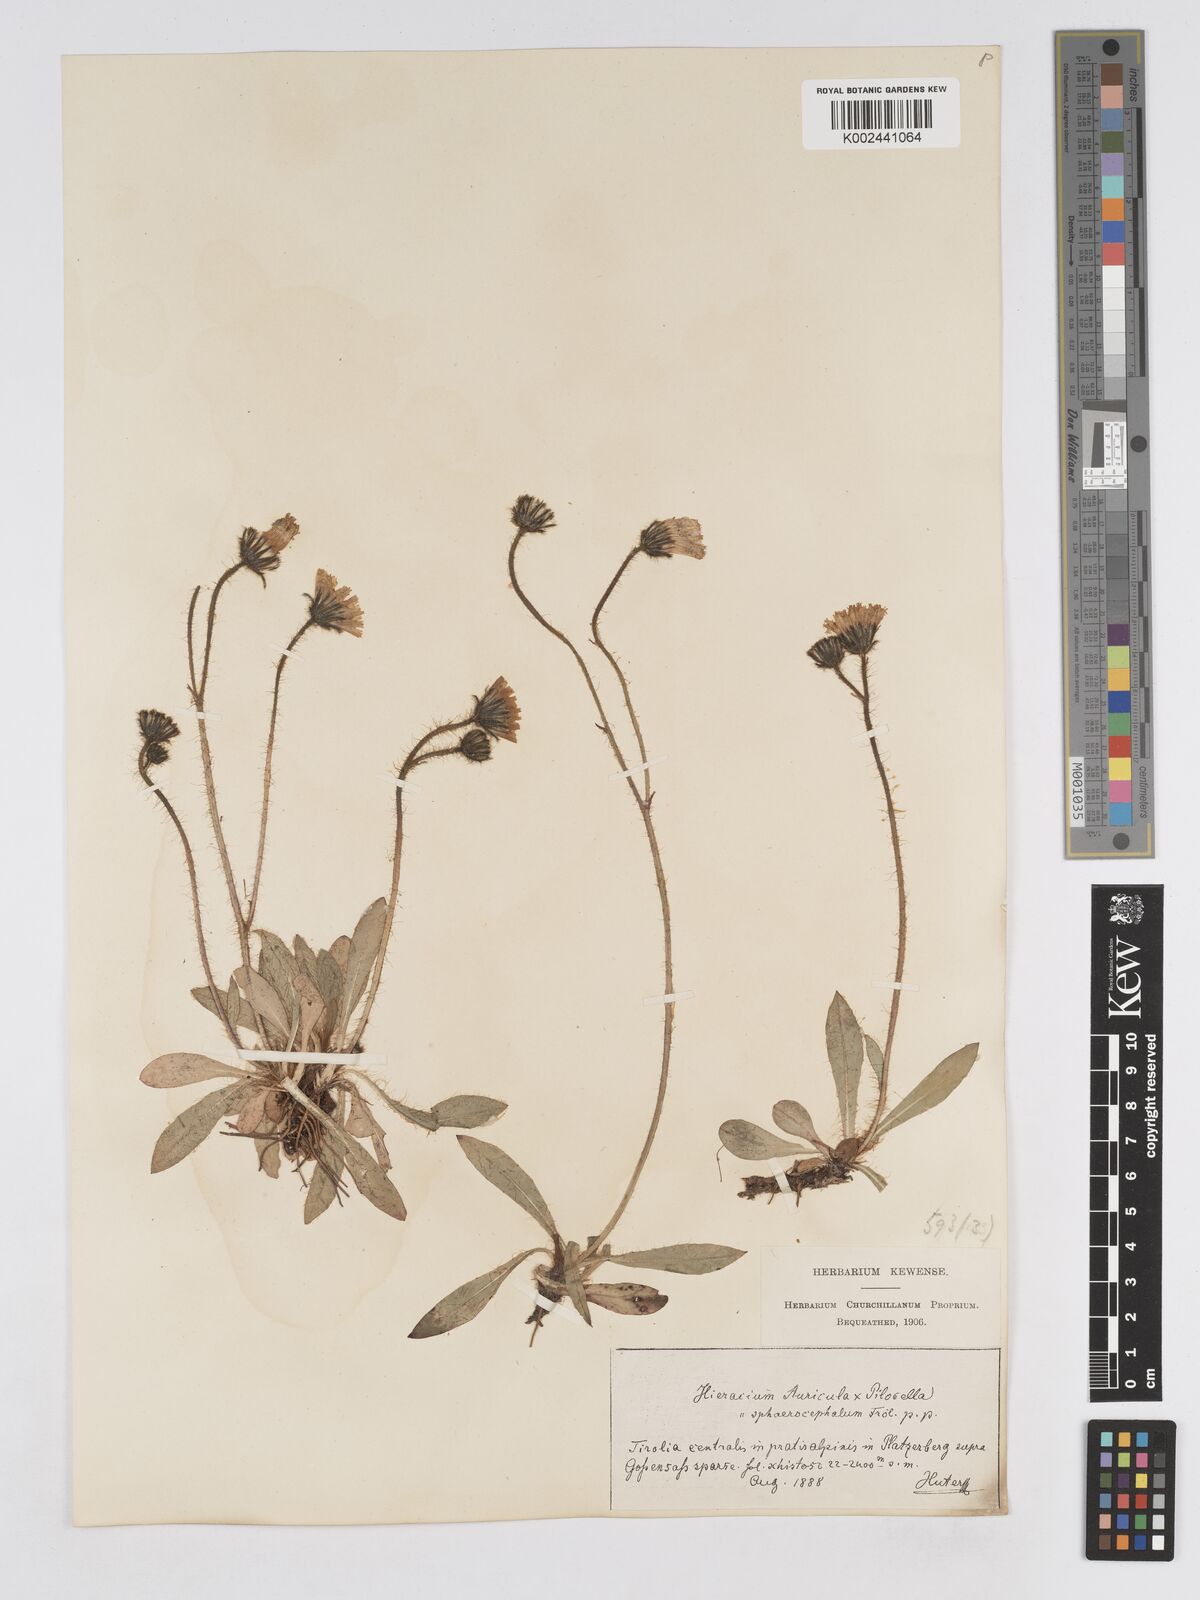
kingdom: Plantae
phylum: Tracheophyta
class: Magnoliopsida
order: Asterales
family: Asteraceae
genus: Pilosella
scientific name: Pilosella sphaerocephala
